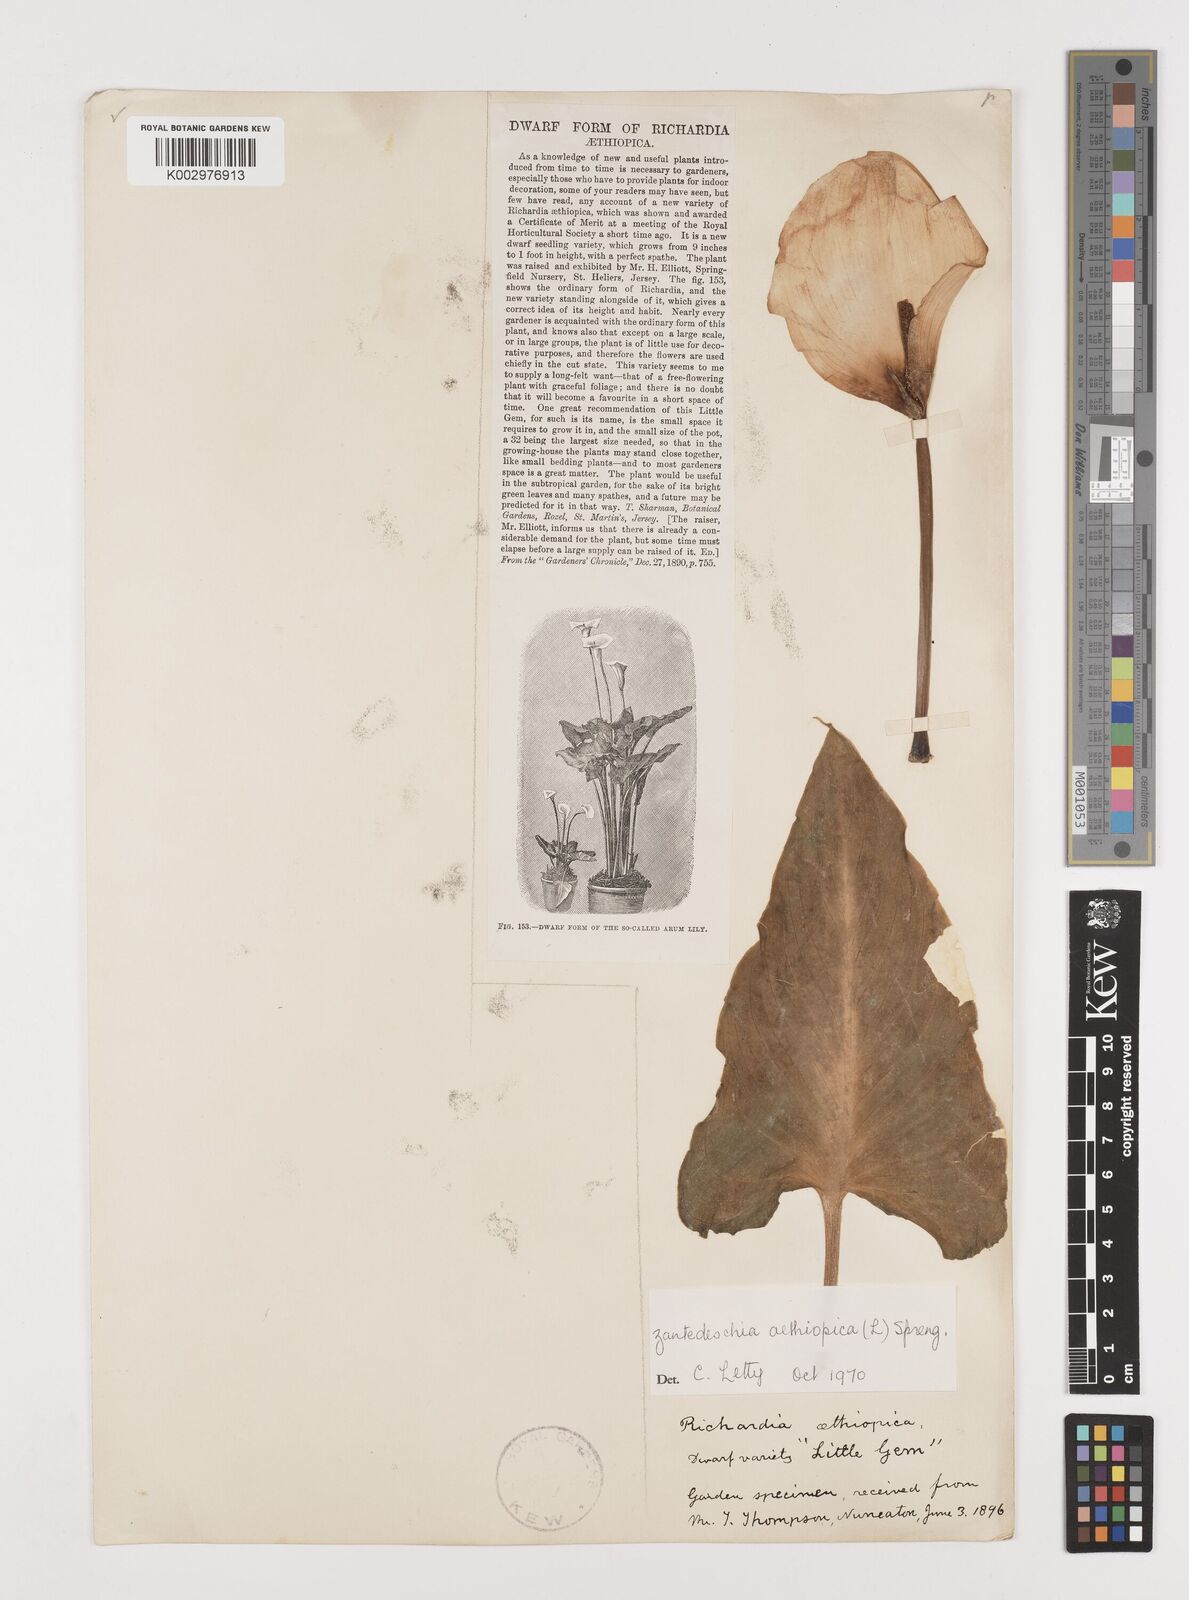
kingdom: Plantae
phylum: Tracheophyta
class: Liliopsida
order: Alismatales
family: Araceae
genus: Zantedeschia
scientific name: Zantedeschia aethiopica
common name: Altar-lily
